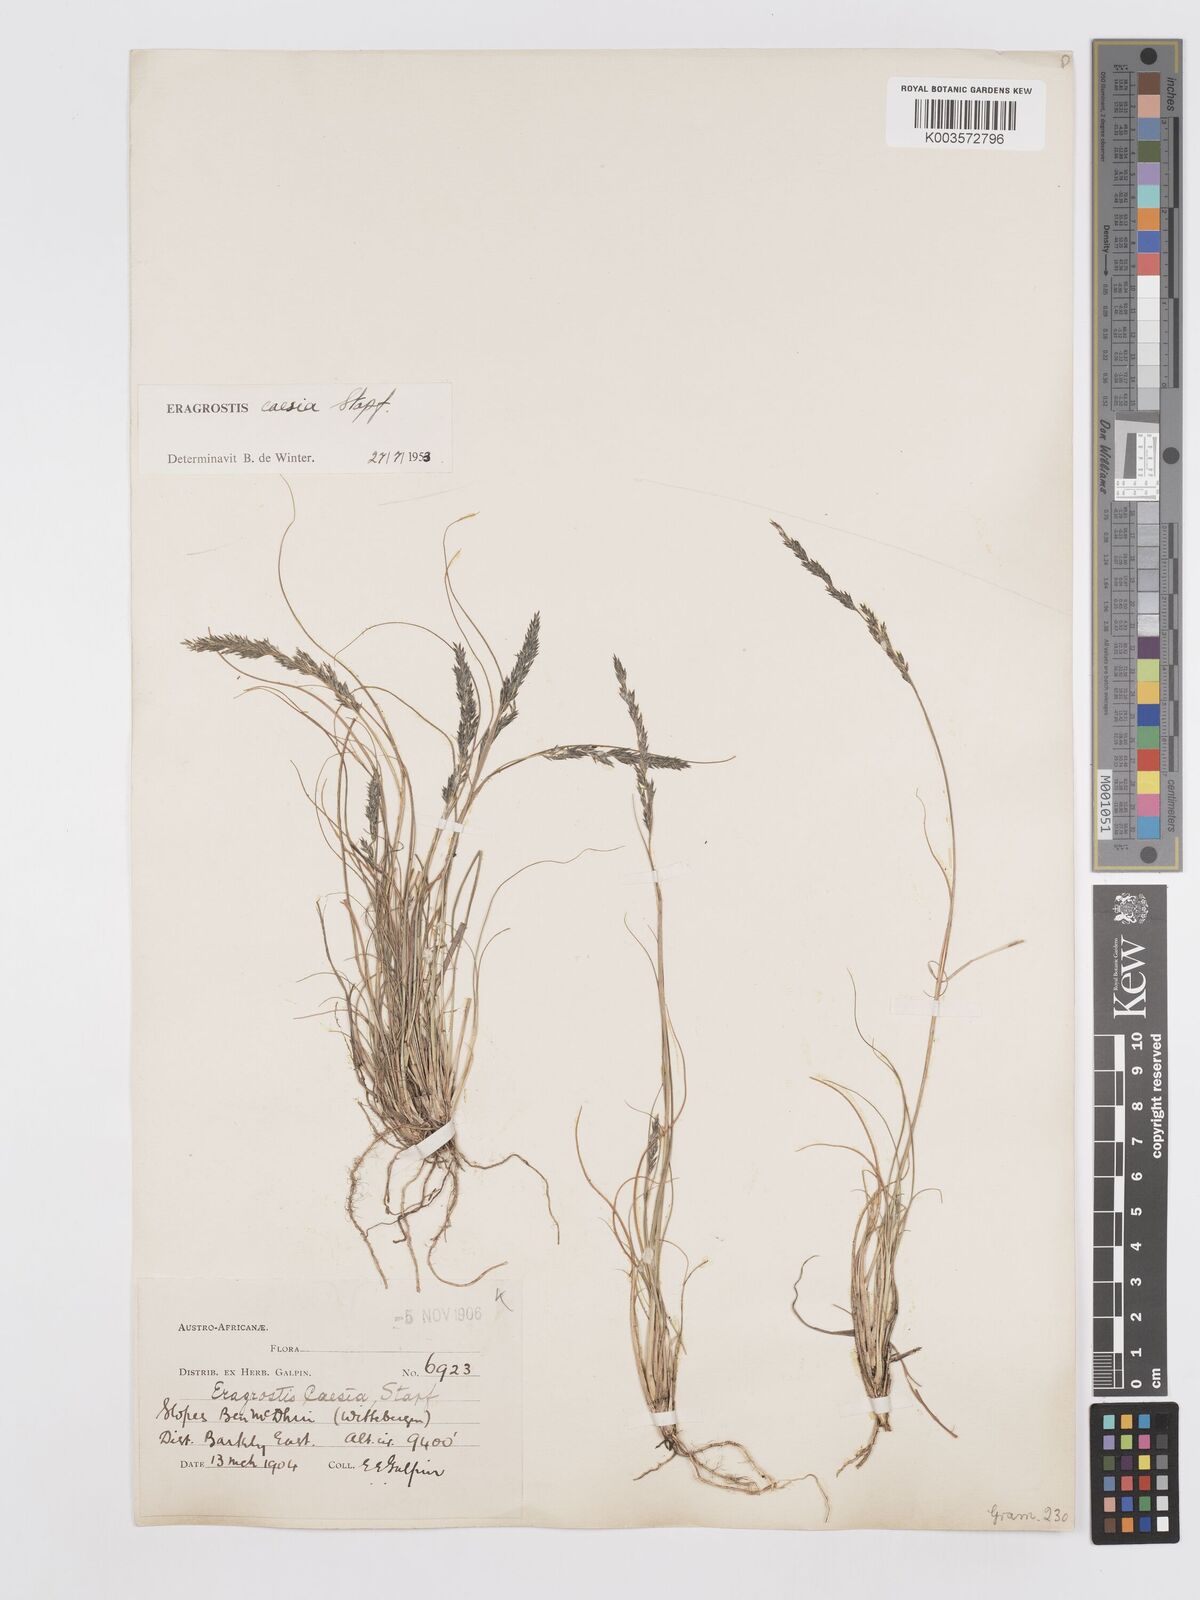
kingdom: Plantae
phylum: Tracheophyta
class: Liliopsida
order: Poales
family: Poaceae
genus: Eragrostis
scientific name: Eragrostis caesia
